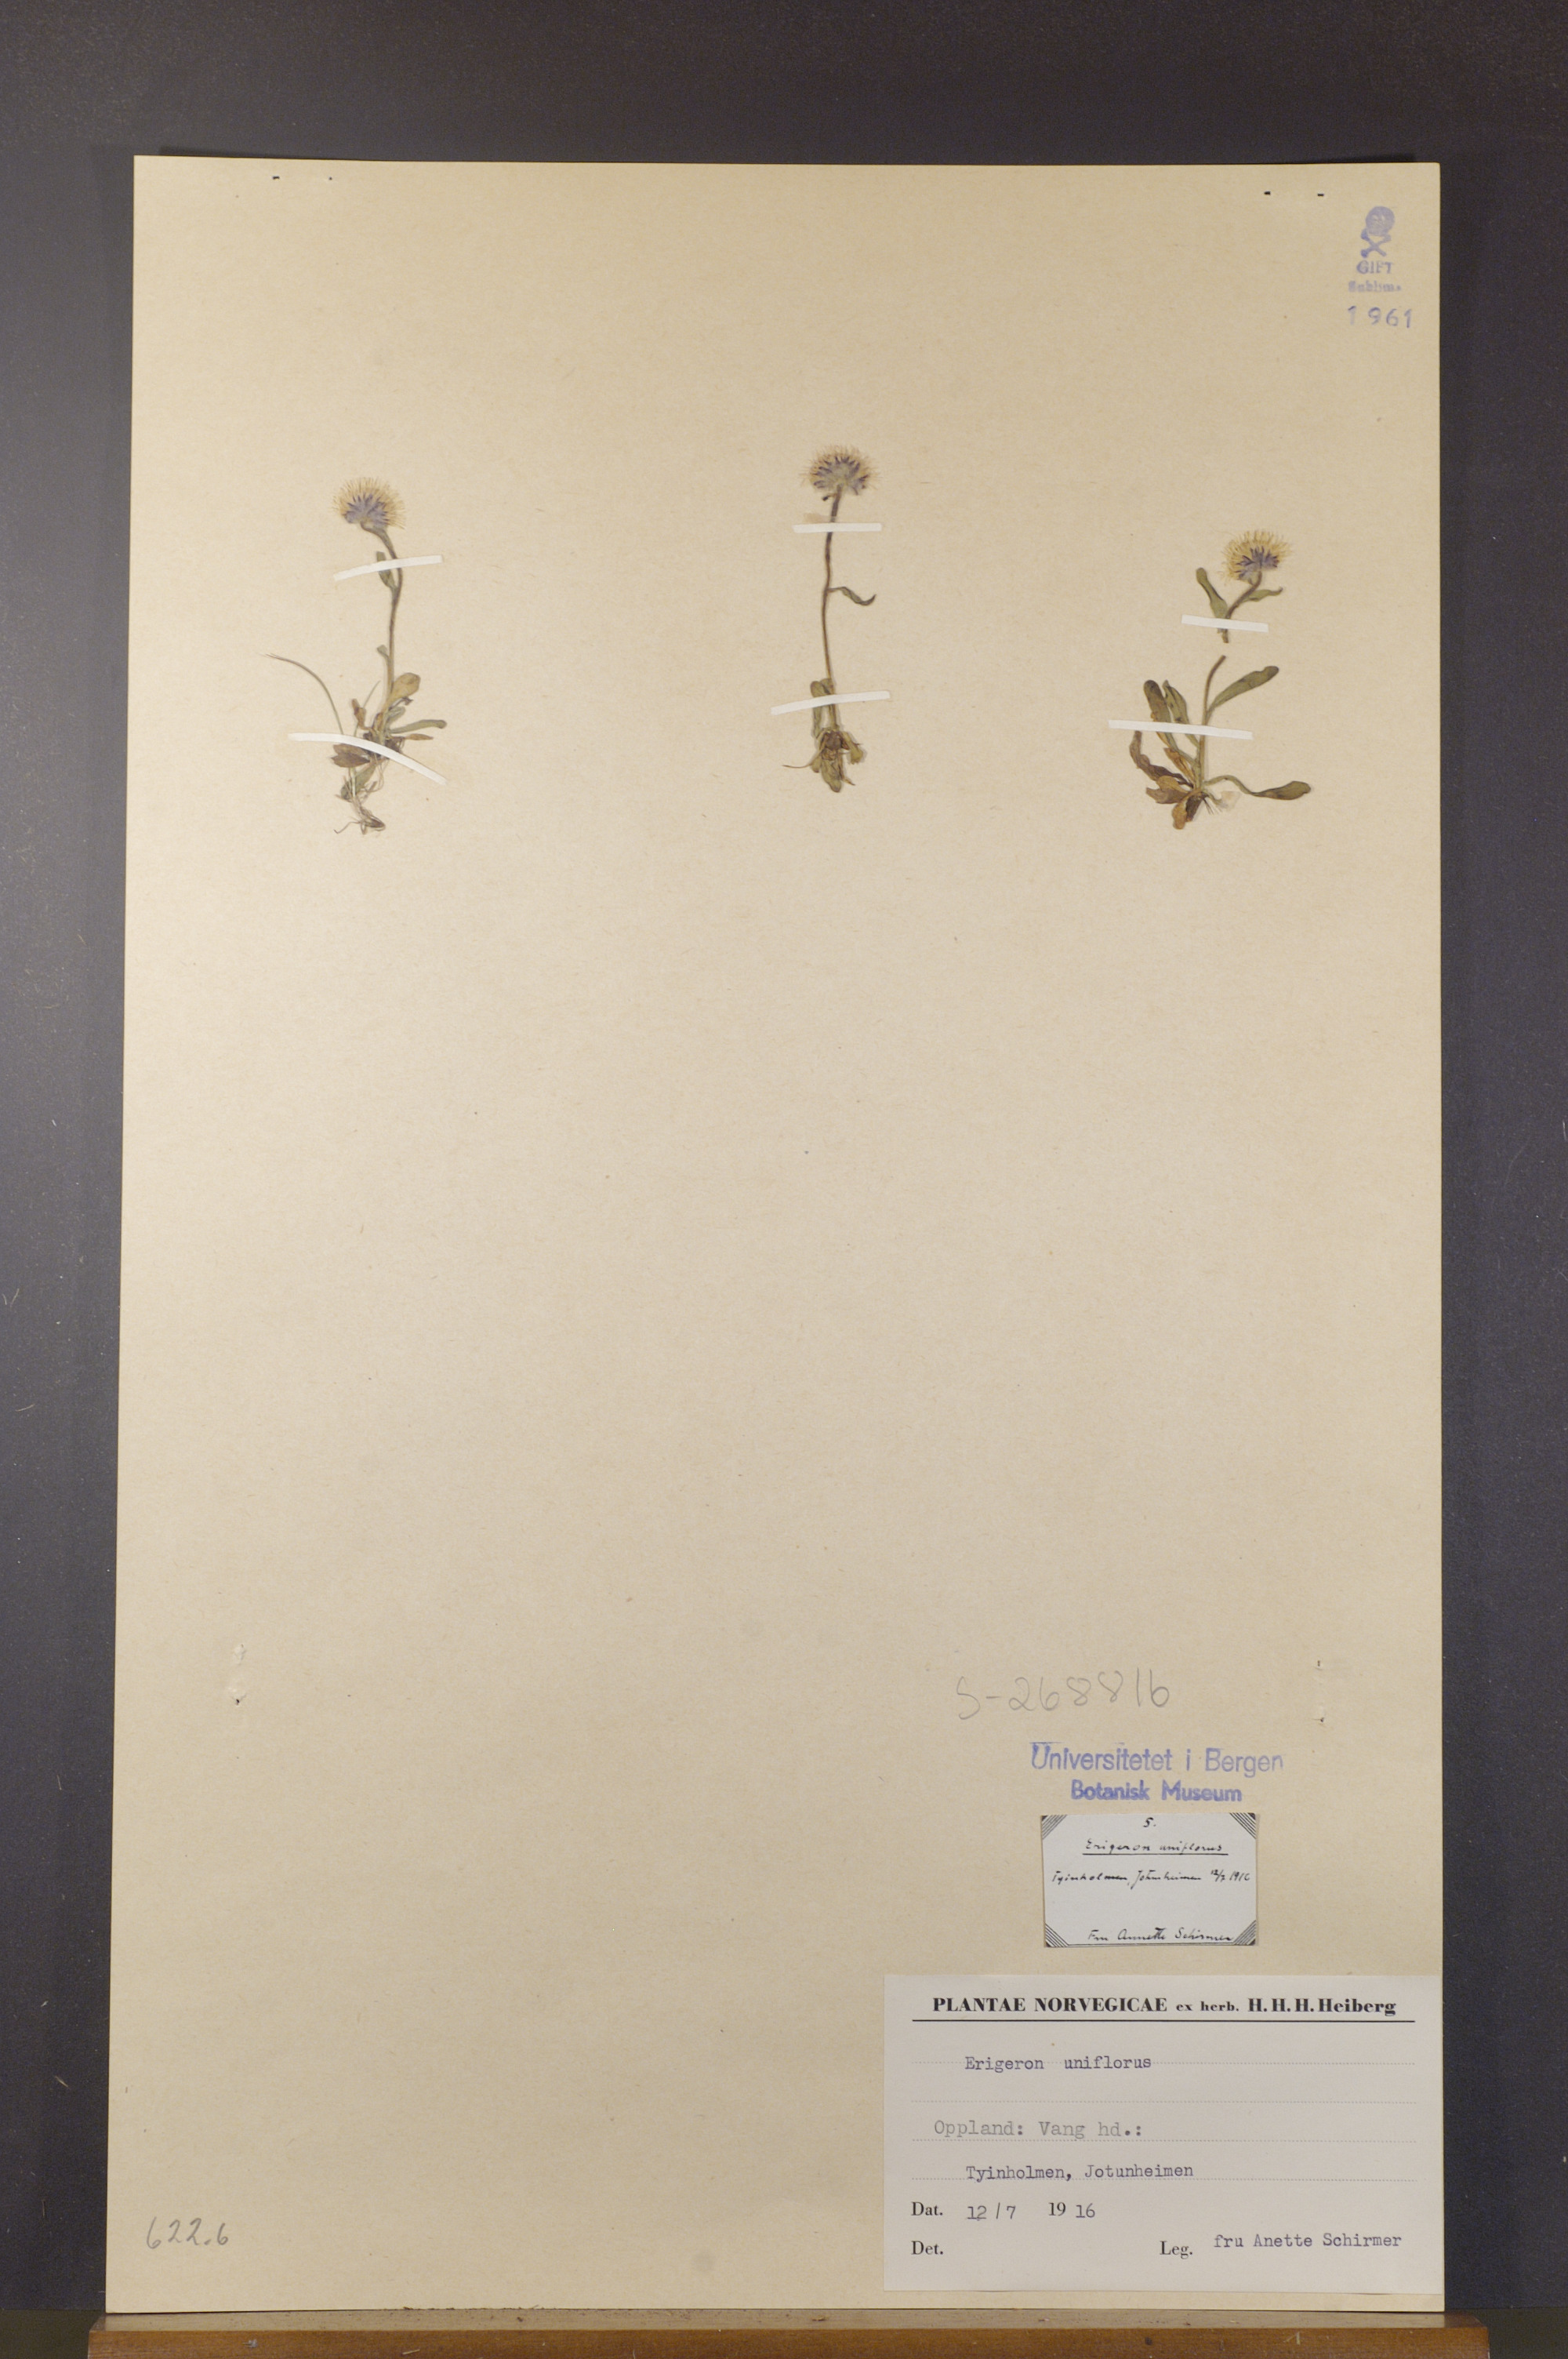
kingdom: Plantae
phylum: Tracheophyta
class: Magnoliopsida
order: Asterales
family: Asteraceae
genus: Erigeron
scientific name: Erigeron uniflorus
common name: Northern daisy
